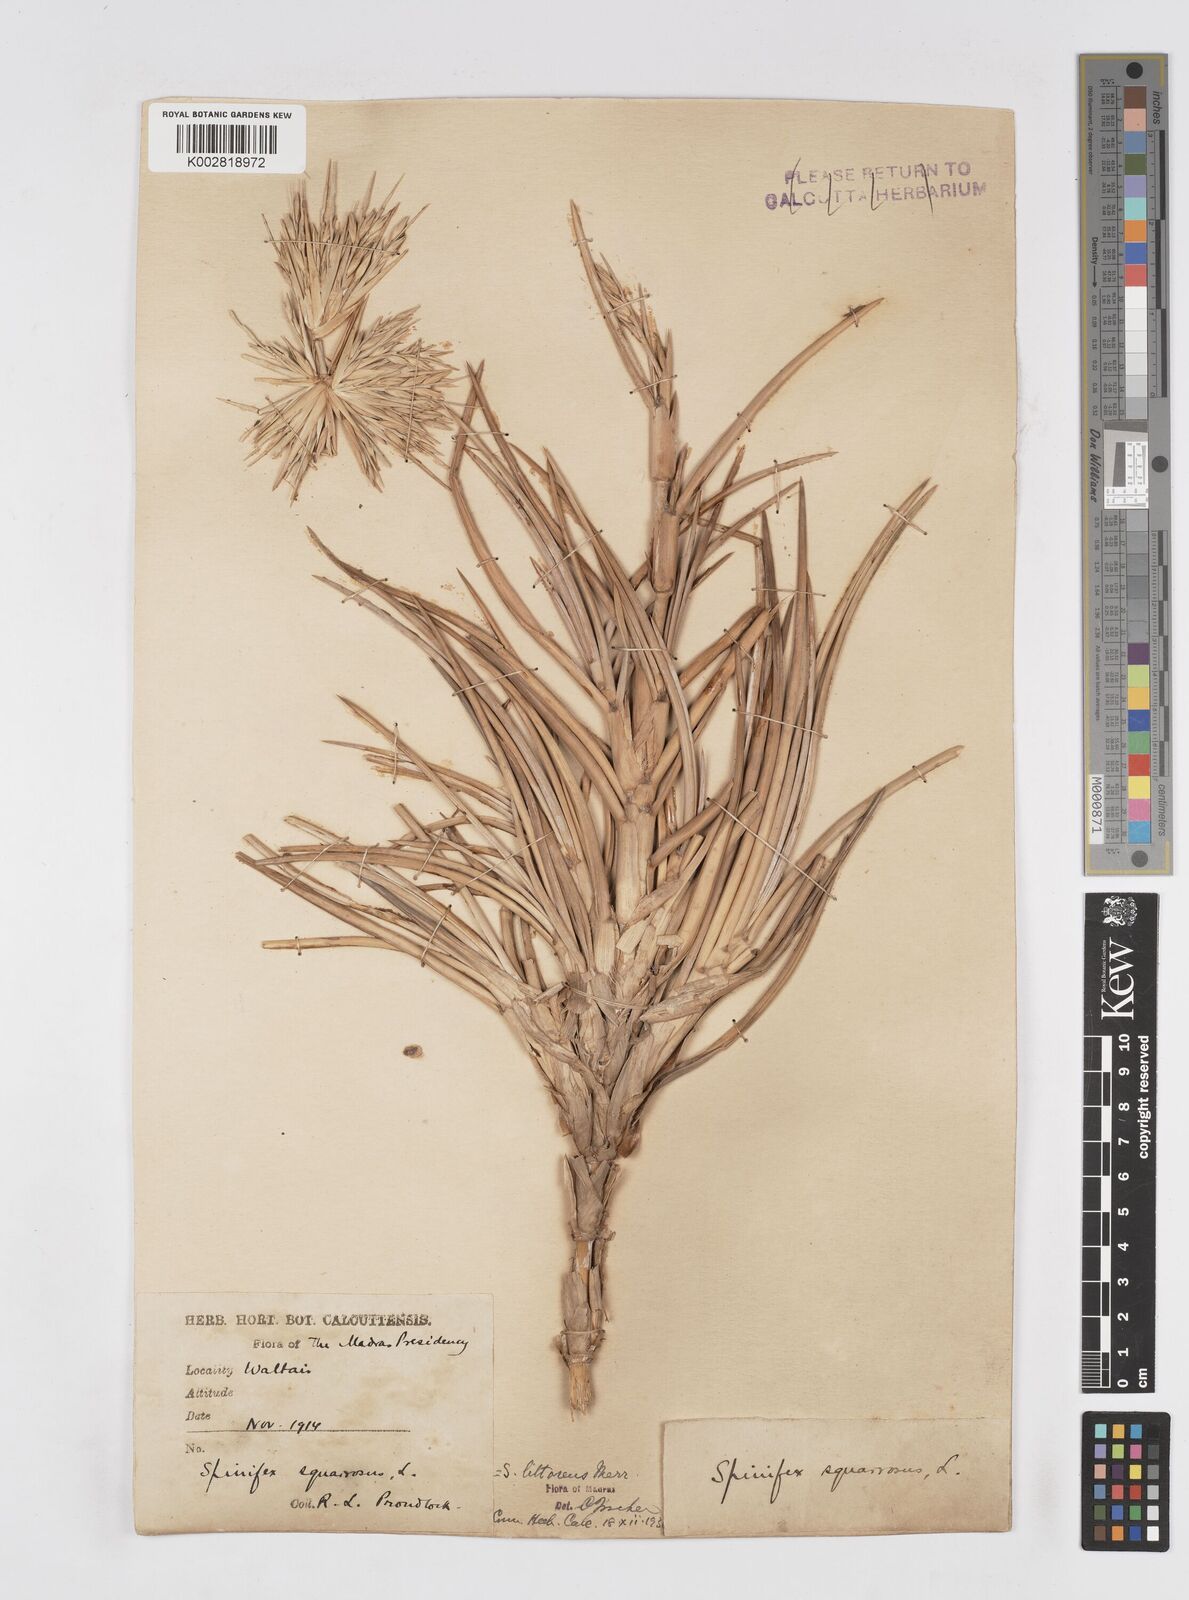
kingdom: Plantae
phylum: Tracheophyta
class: Liliopsida
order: Poales
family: Poaceae
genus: Spinifex
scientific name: Spinifex littoreus
